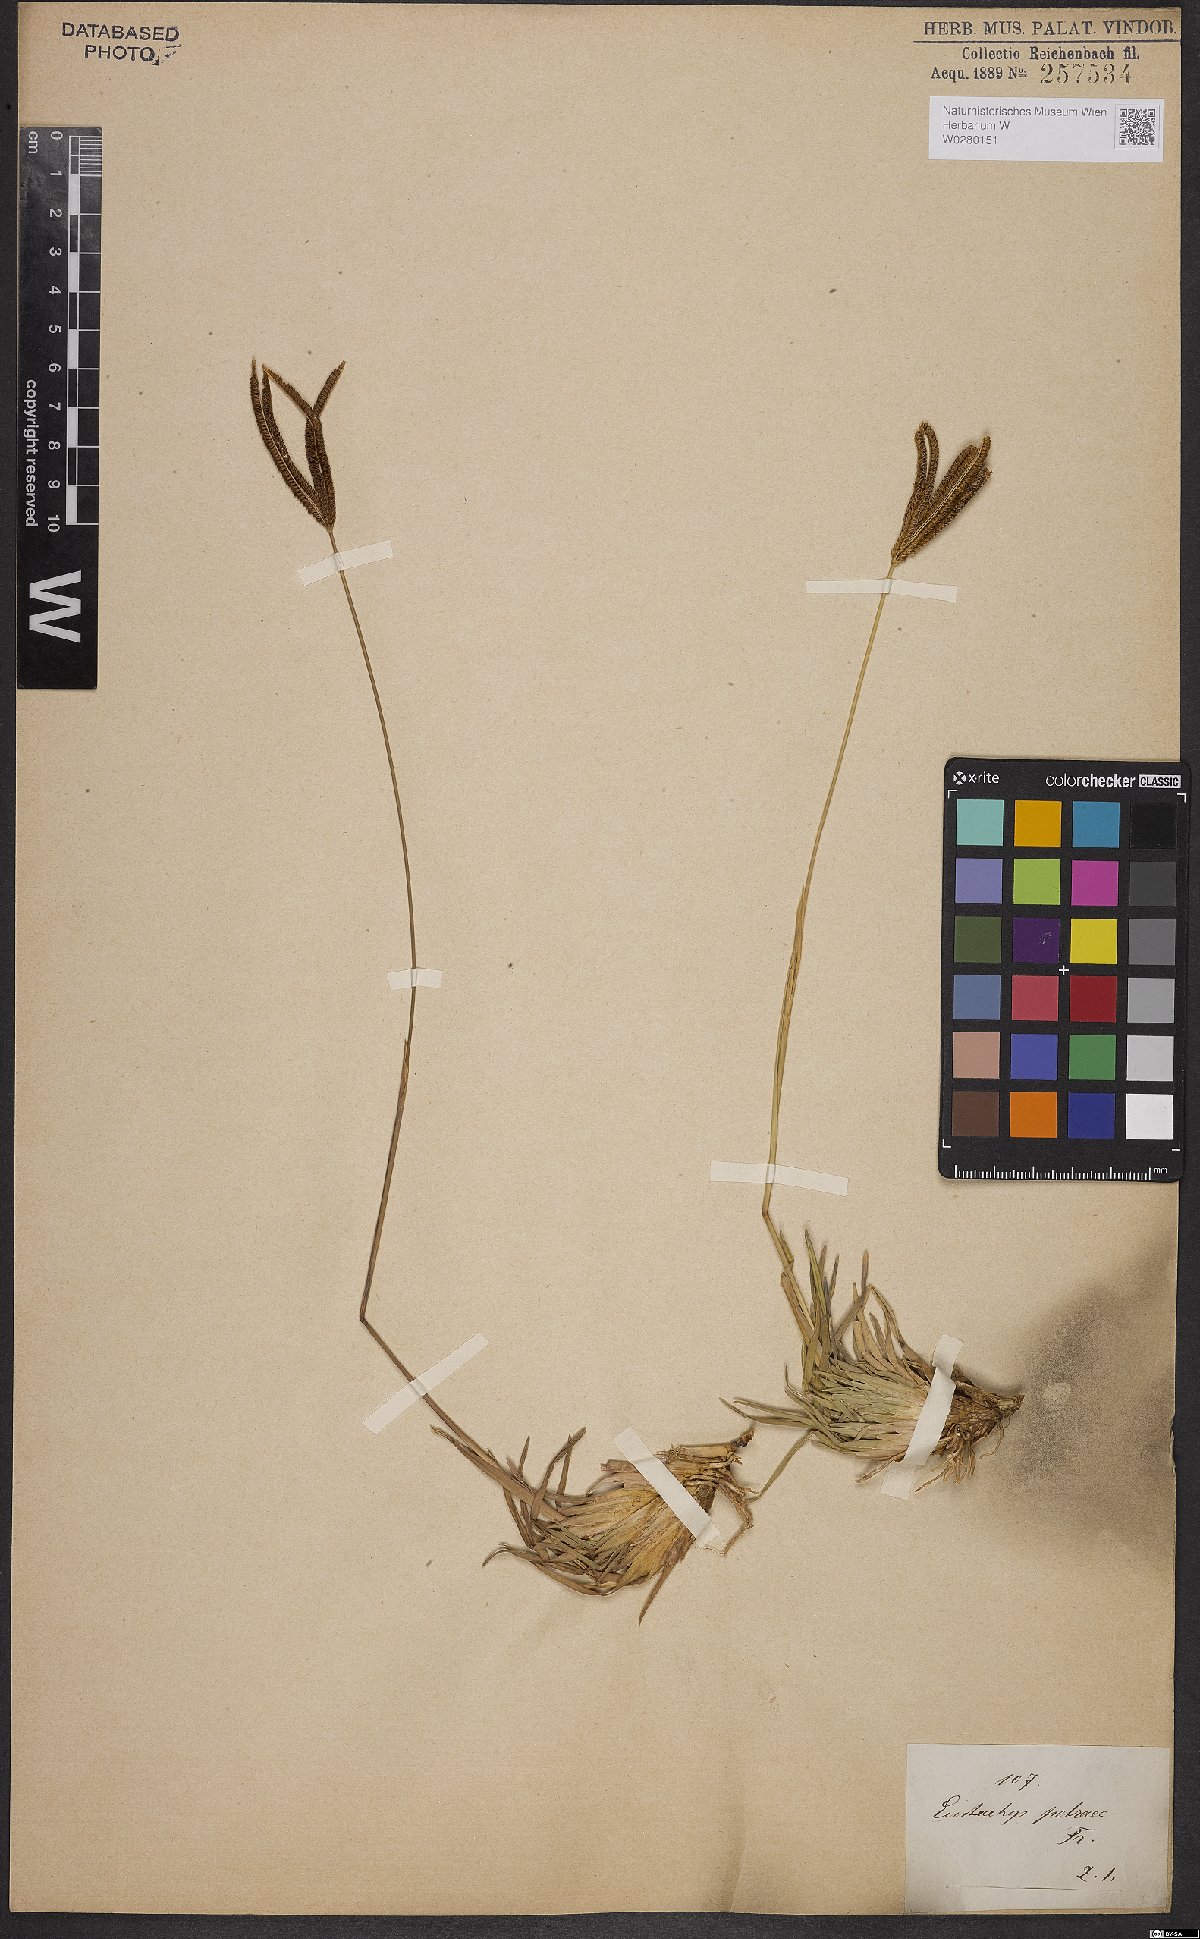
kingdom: Plantae
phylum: Tracheophyta
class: Liliopsida
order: Poales
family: Poaceae
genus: Eustachys
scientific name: Eustachys petraea
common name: Pinewoods fingergrass
